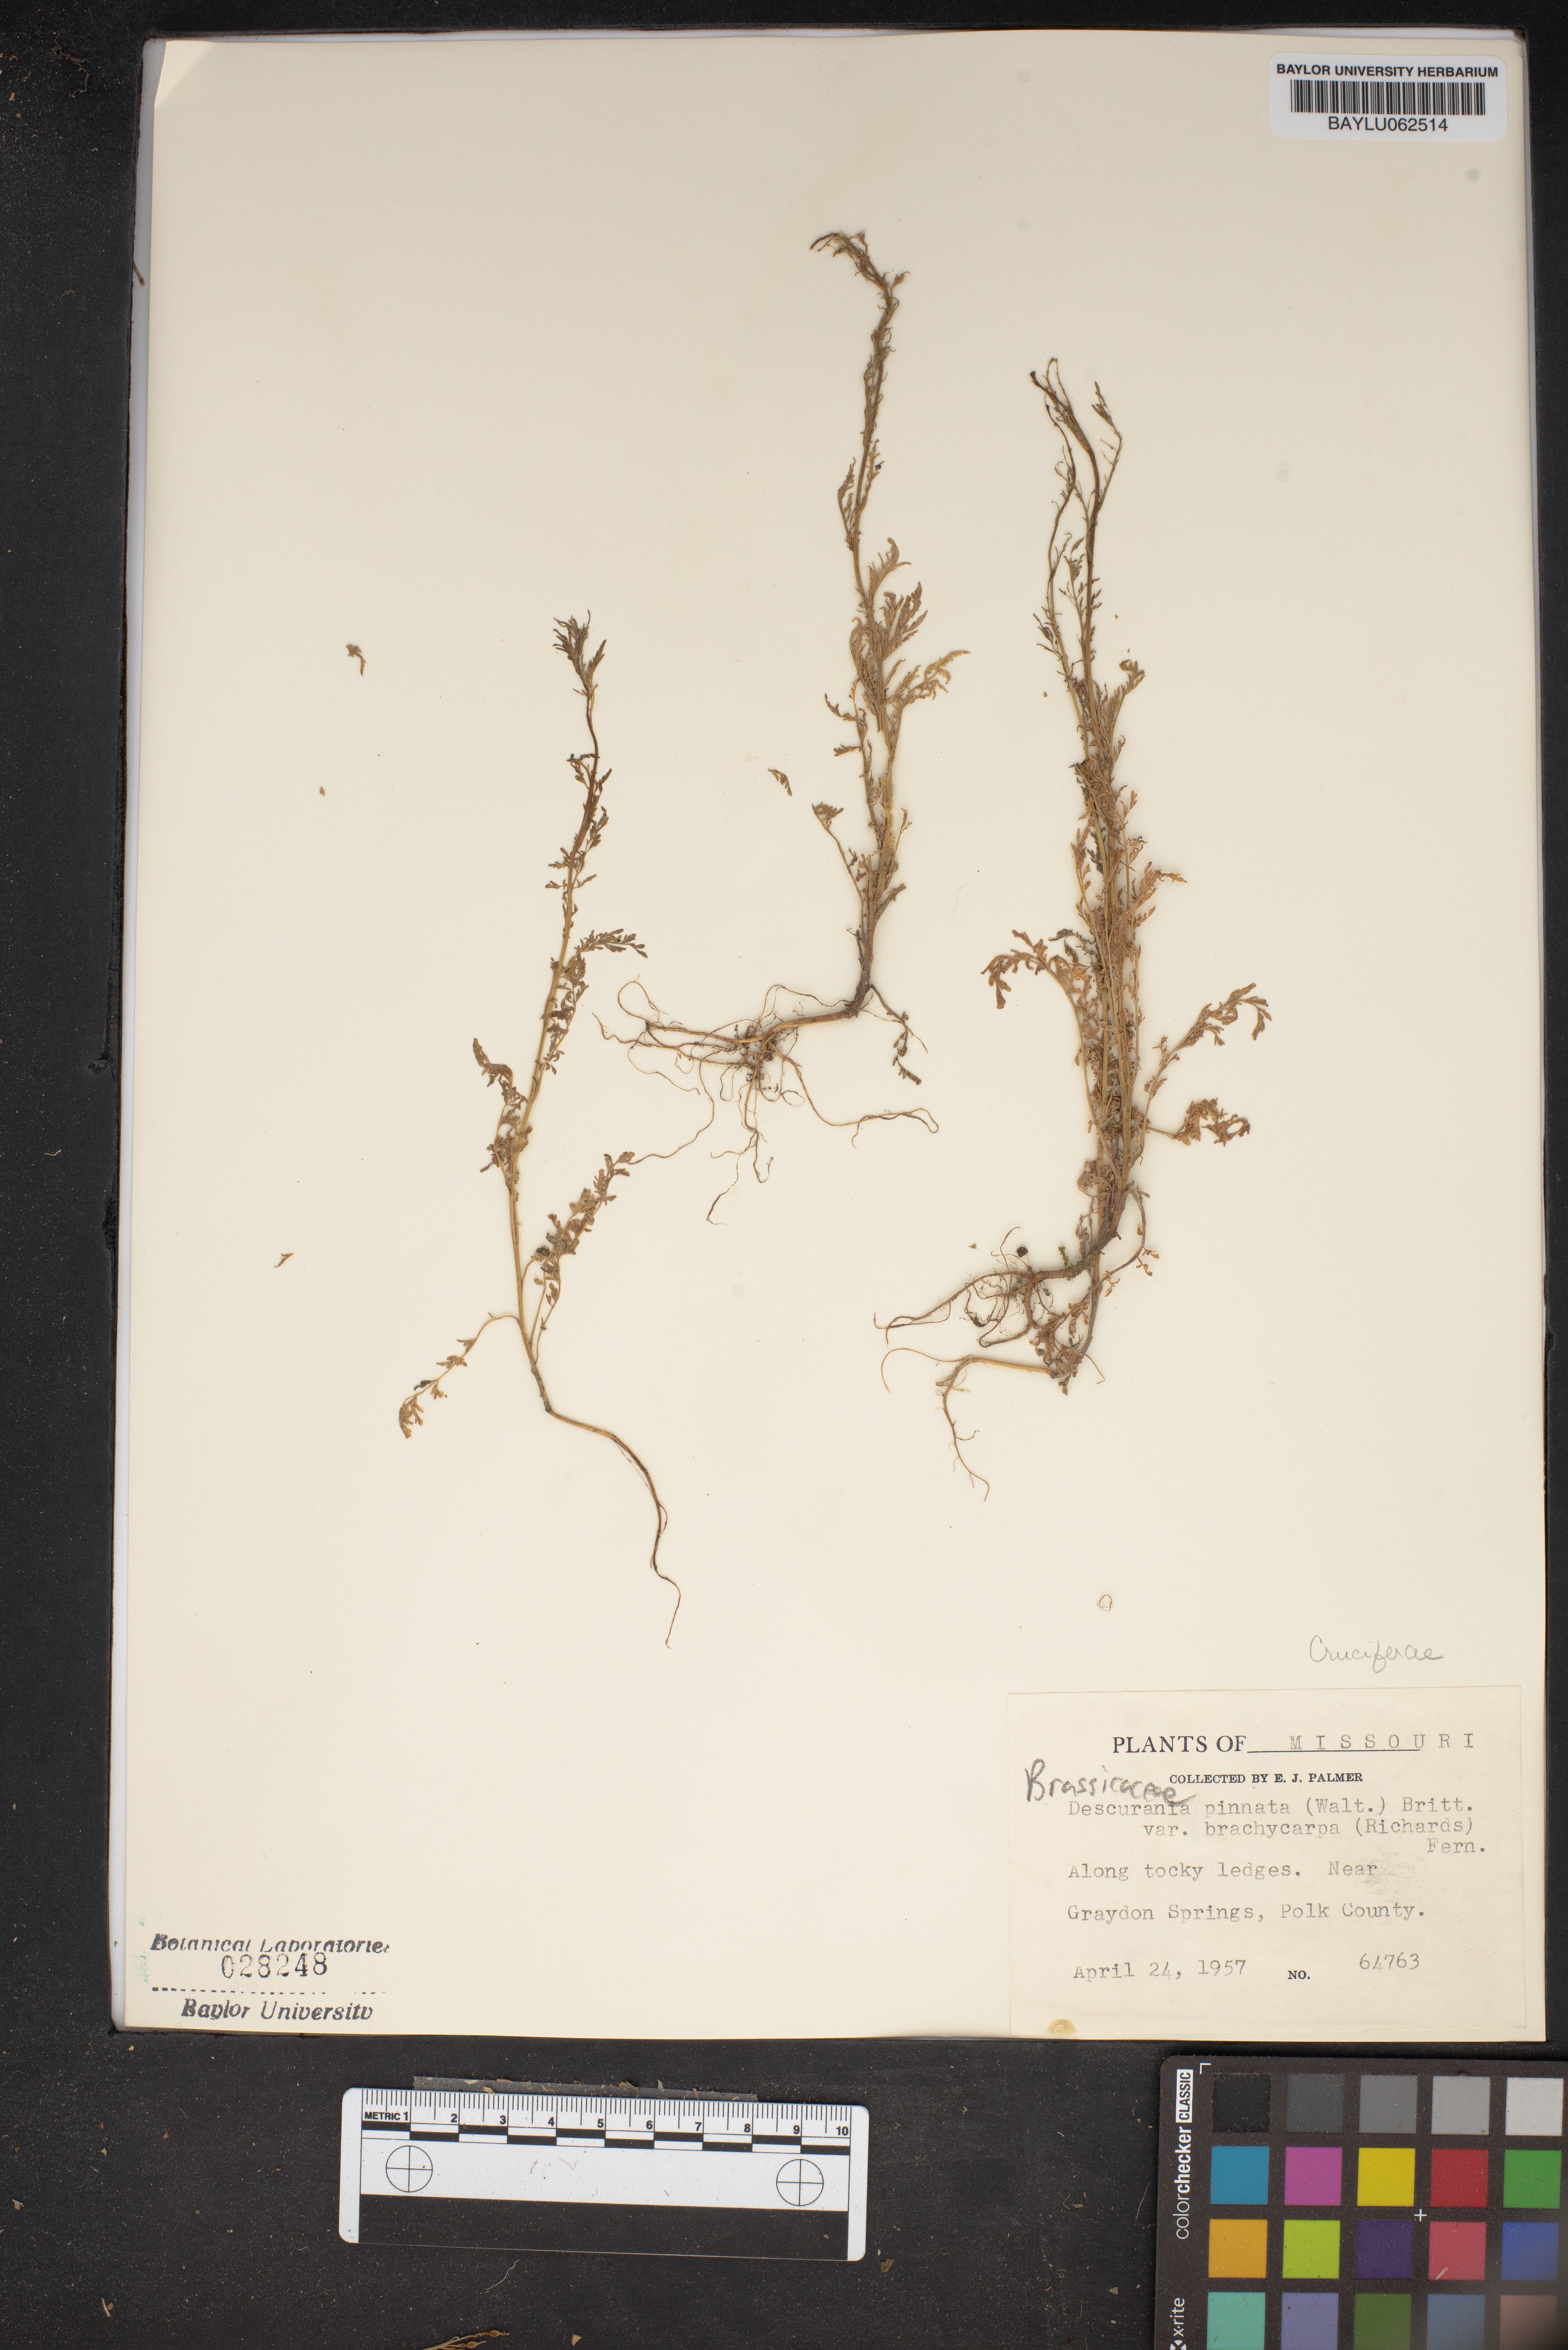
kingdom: Plantae
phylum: Tracheophyta
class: Magnoliopsida
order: Brassicales
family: Brassicaceae
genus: Descurainia
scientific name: Descurainia pinnata
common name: Western tansy mustard
